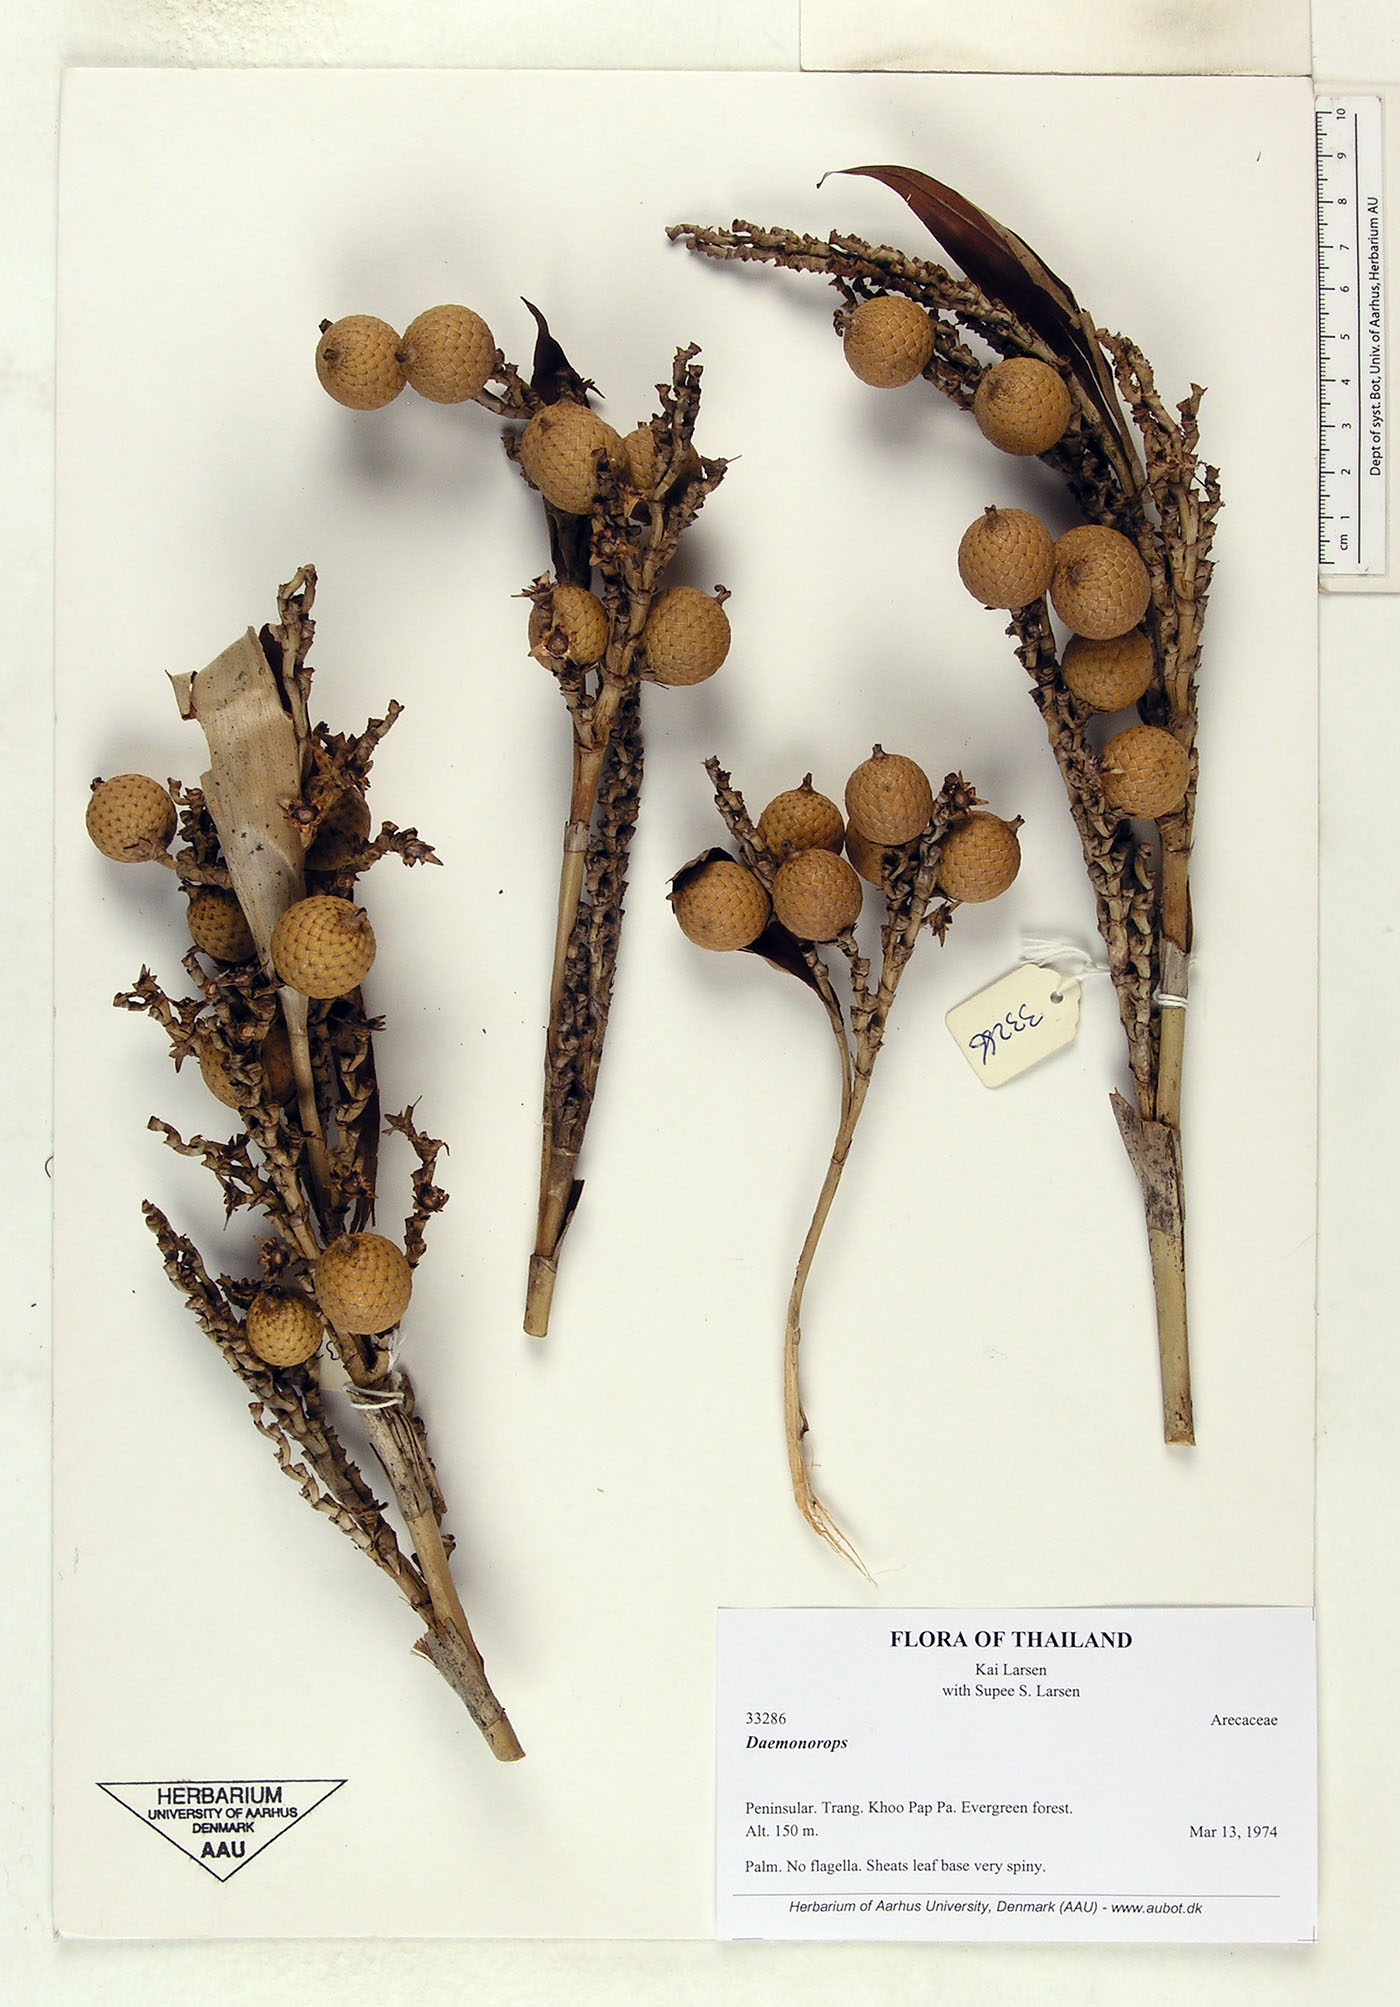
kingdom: Plantae
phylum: Tracheophyta
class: Liliopsida
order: Arecales
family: Arecaceae
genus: Calamus
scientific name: Calamus melanochaetes
